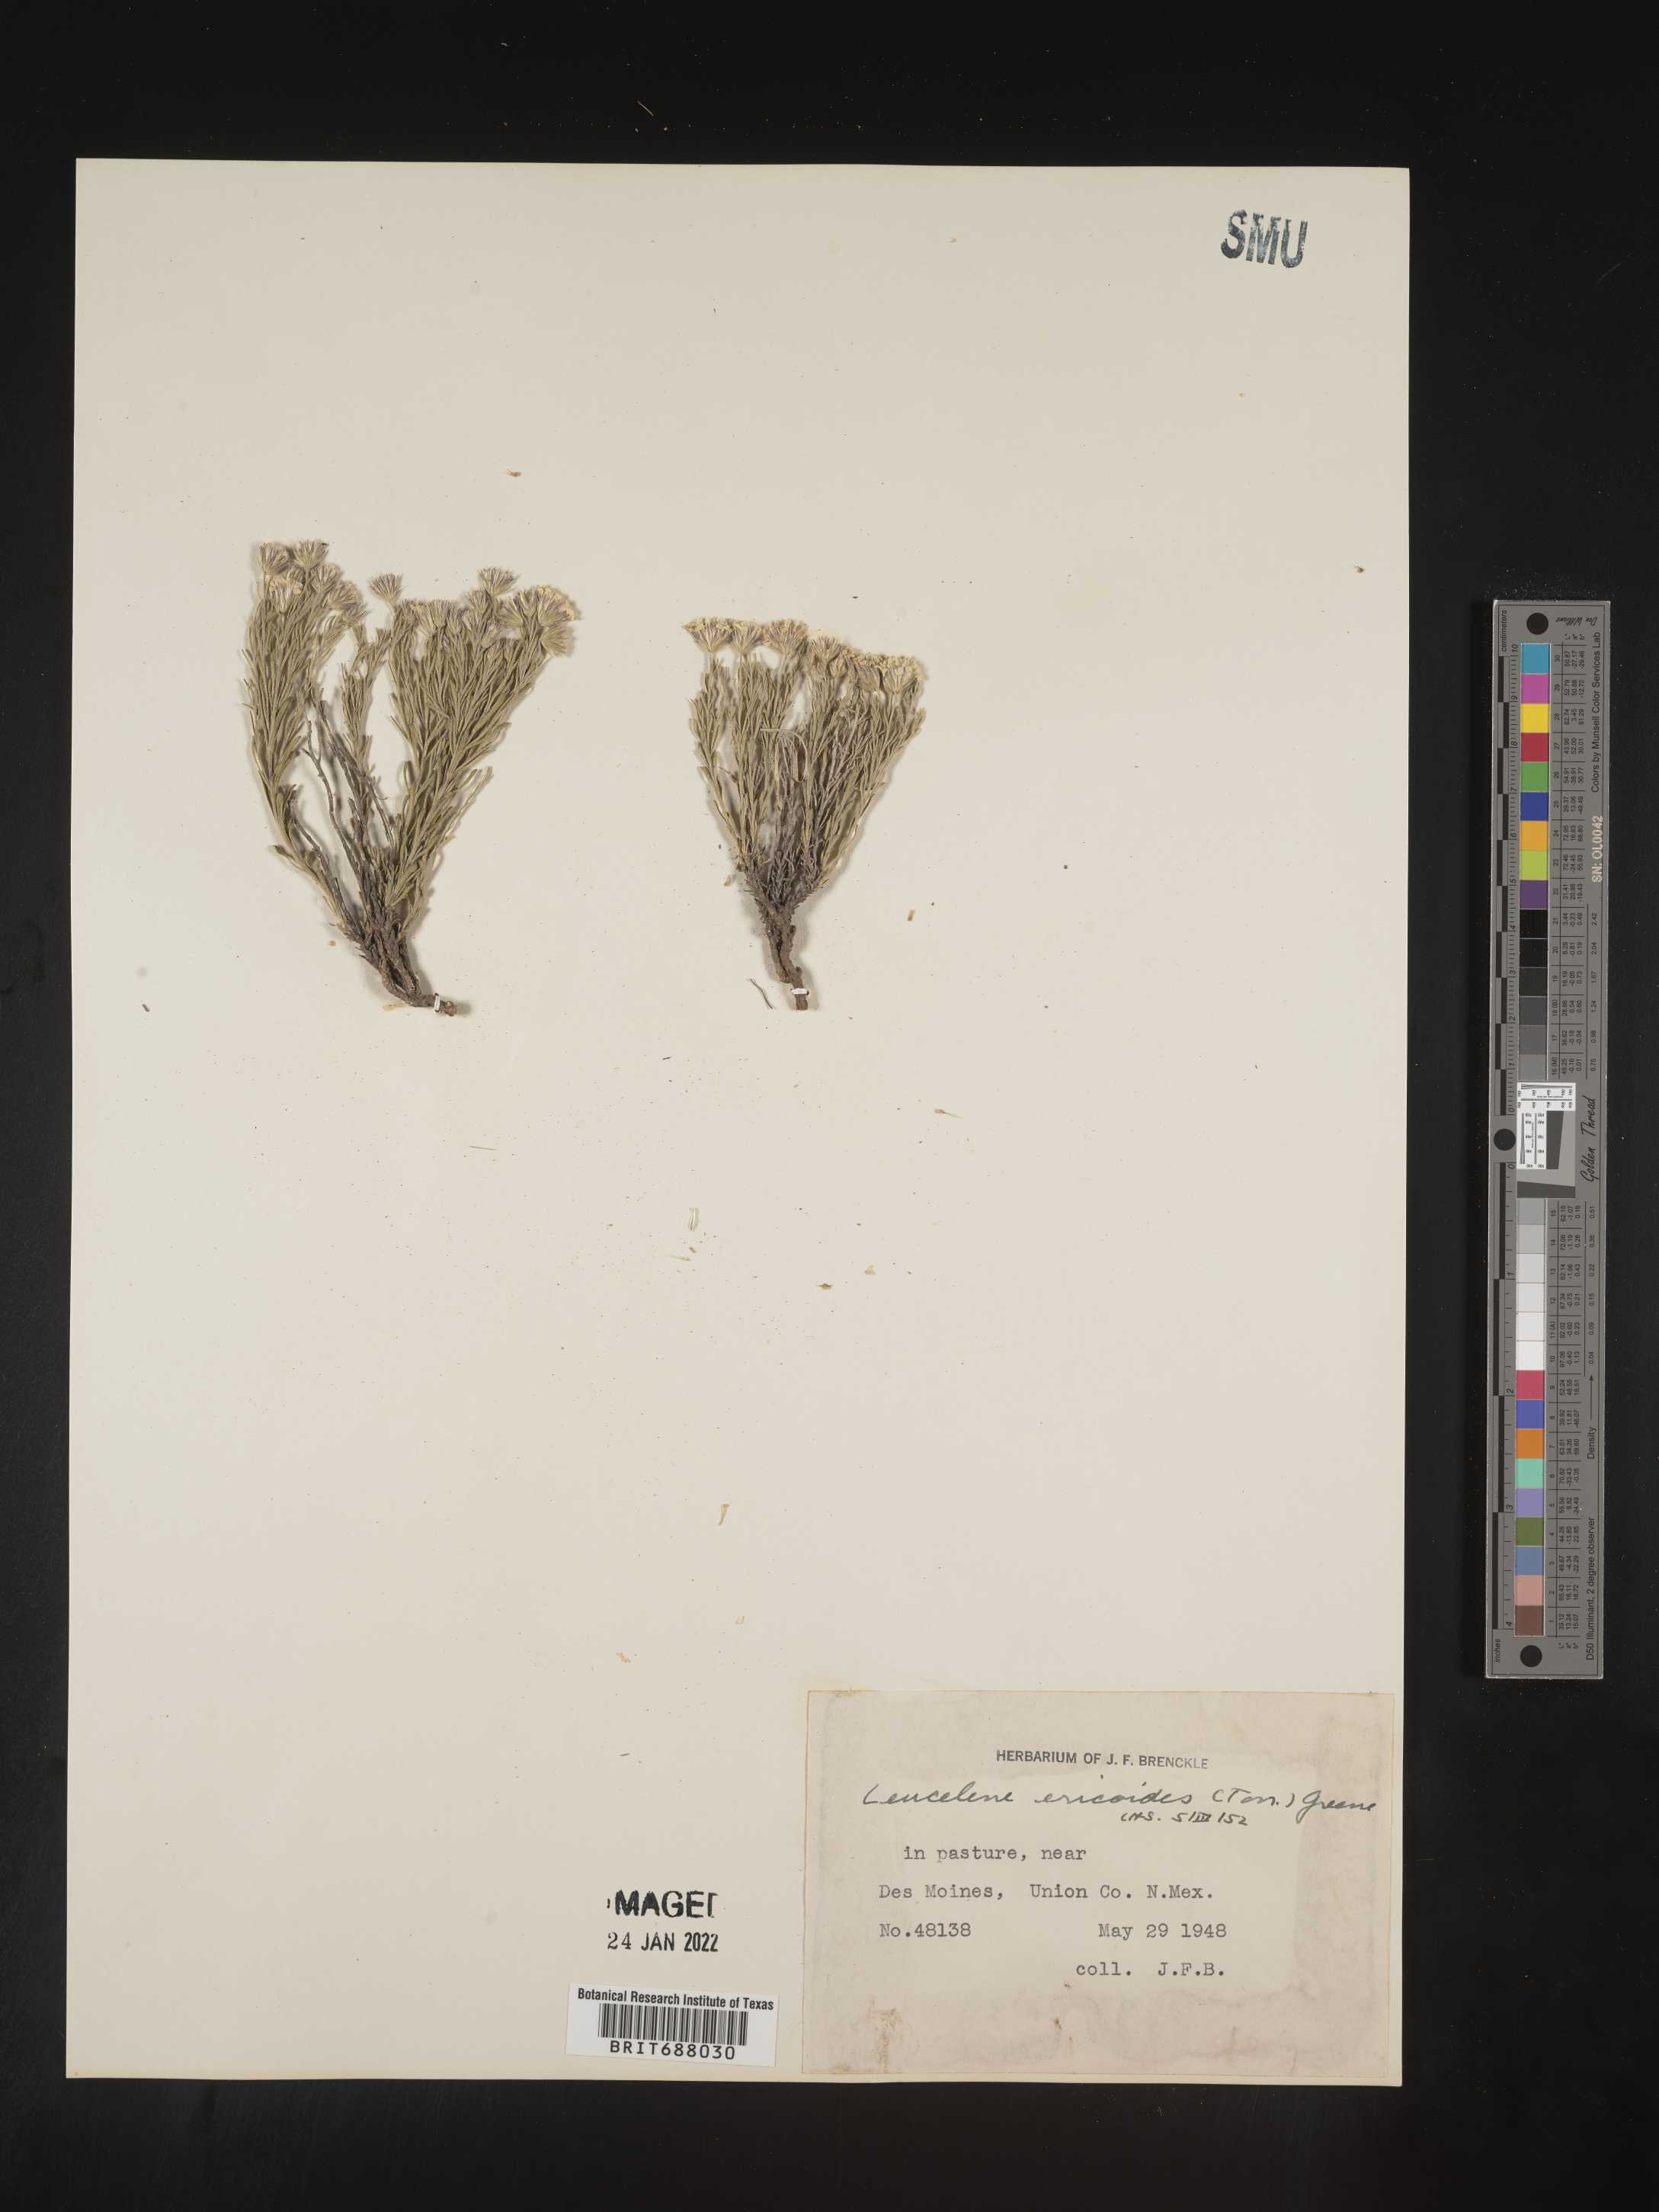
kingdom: Plantae
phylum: Tracheophyta
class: Magnoliopsida
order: Asterales
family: Asteraceae
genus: Chaetopappa
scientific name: Chaetopappa ericoides
